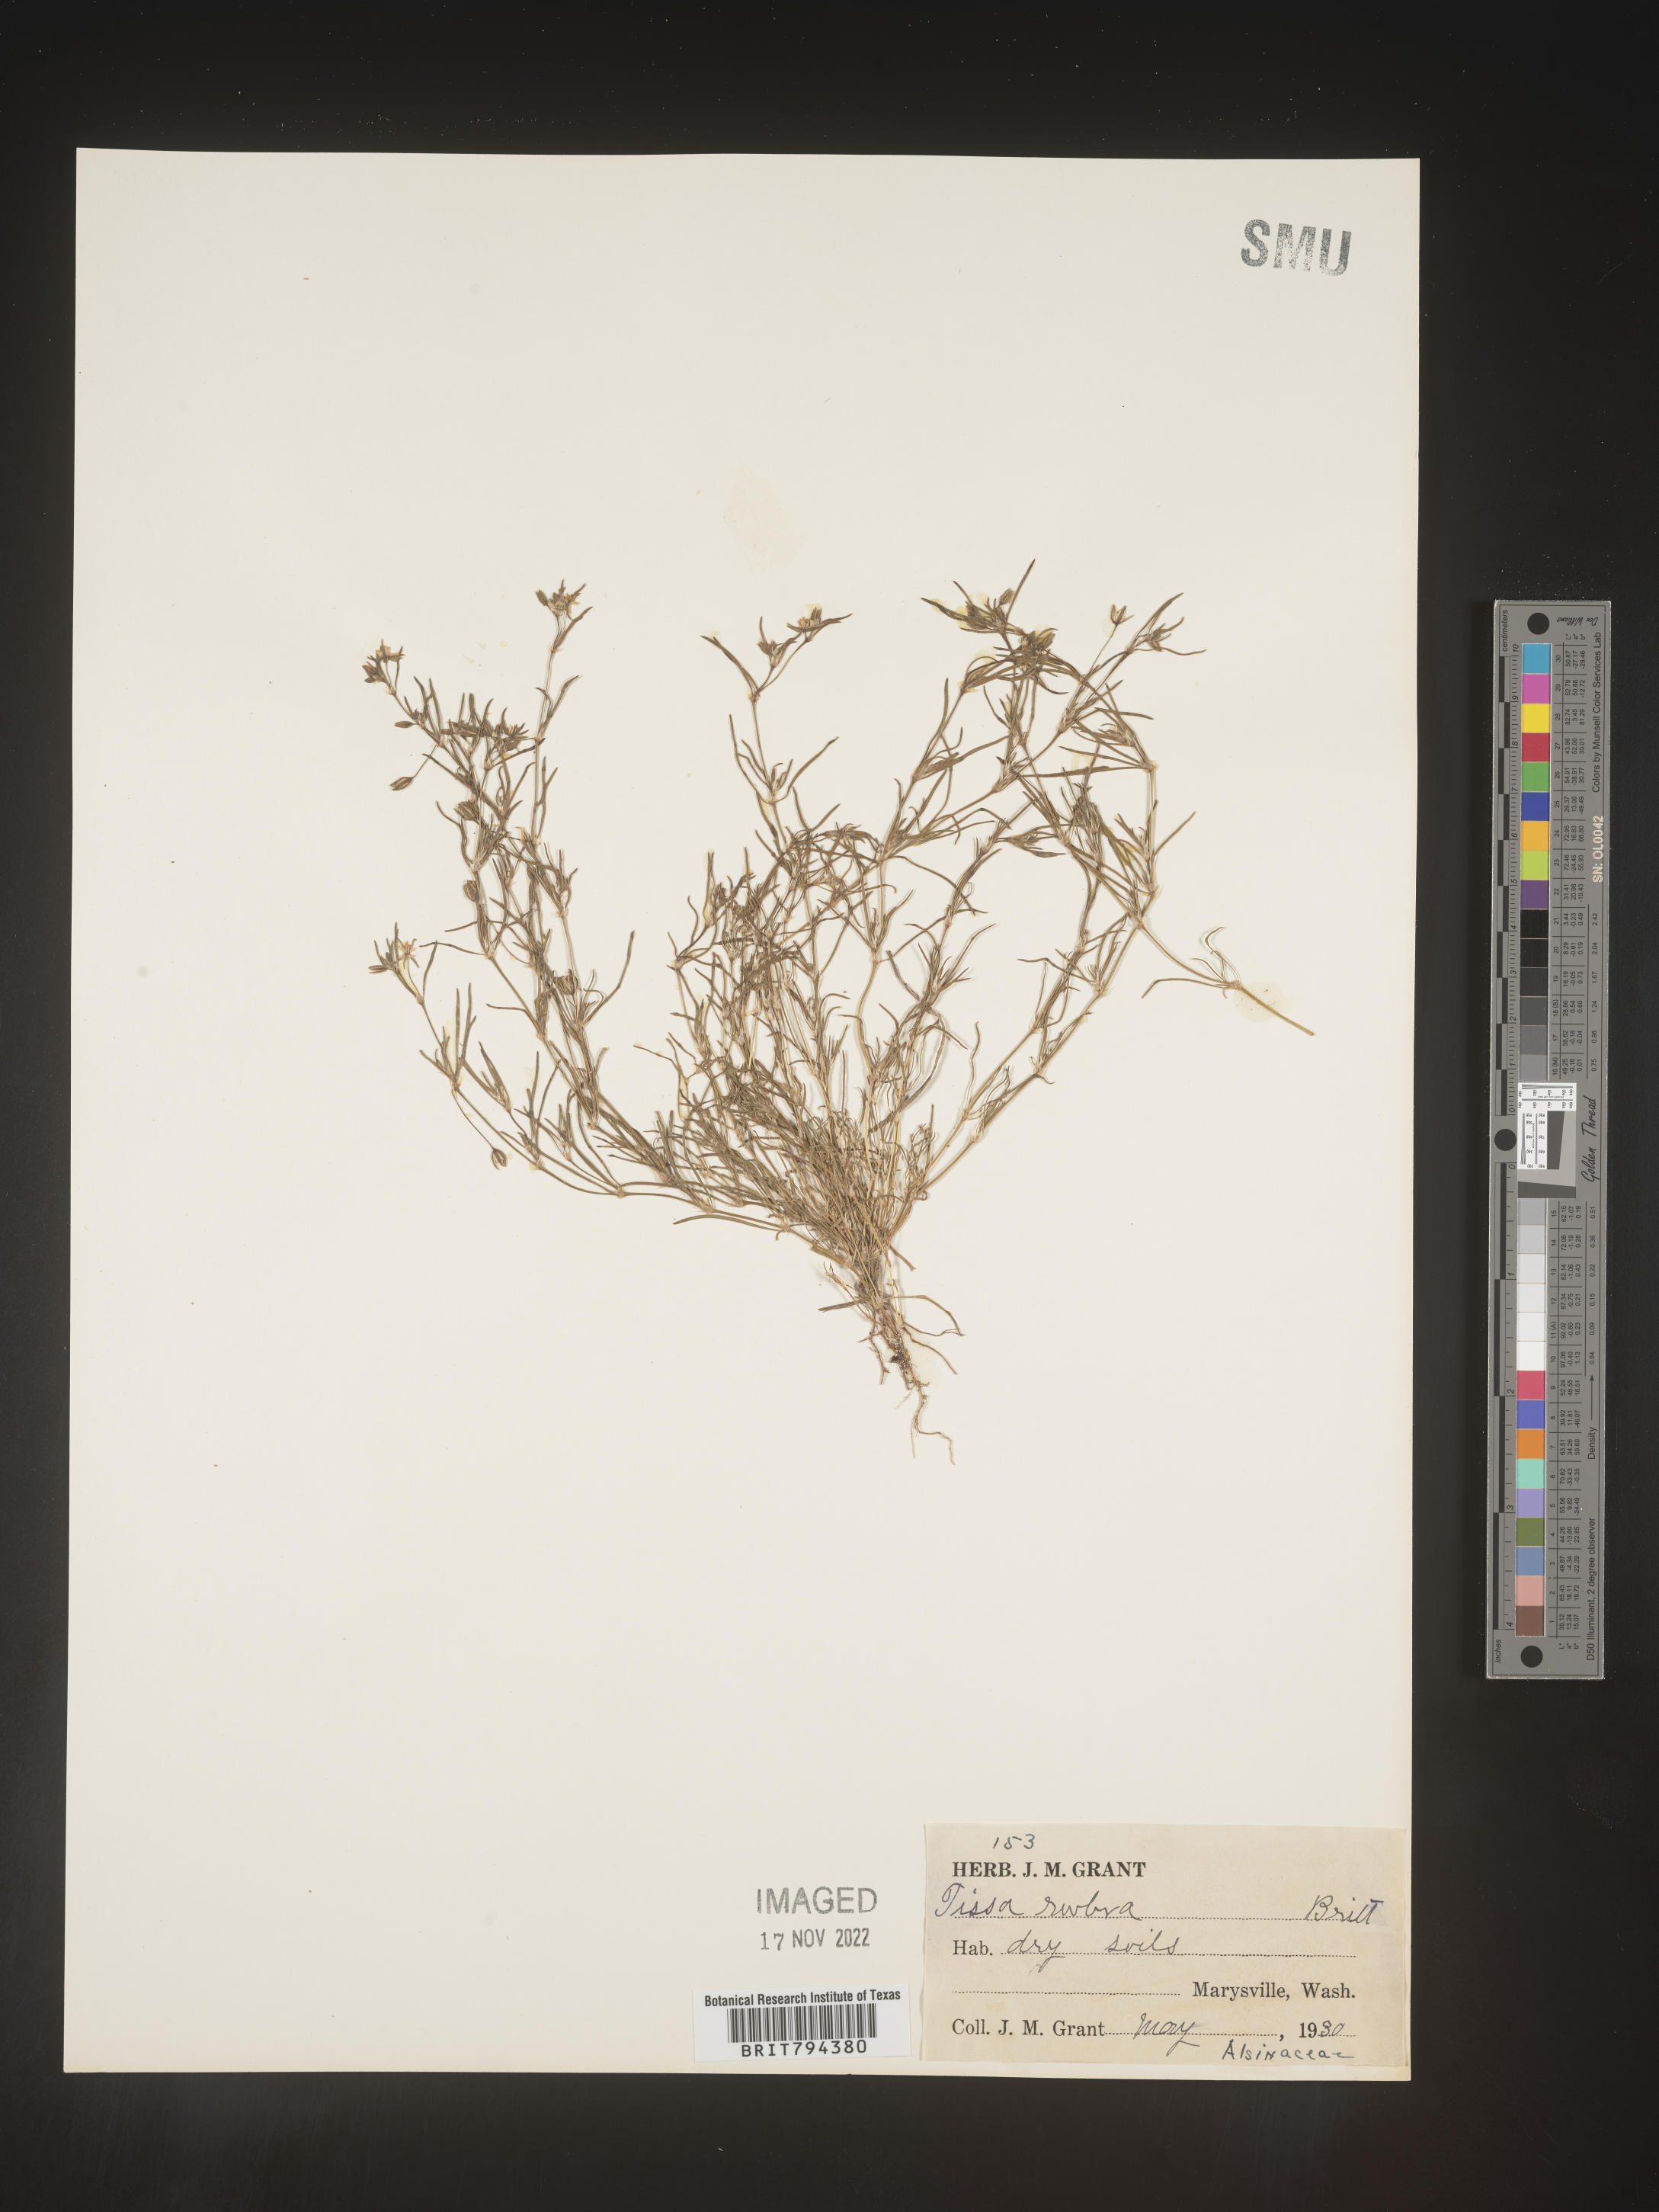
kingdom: Plantae
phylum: Tracheophyta
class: Magnoliopsida
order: Caryophyllales
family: Caryophyllaceae
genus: Spergularia
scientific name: Spergularia rubra
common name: Red sand-spurrey
